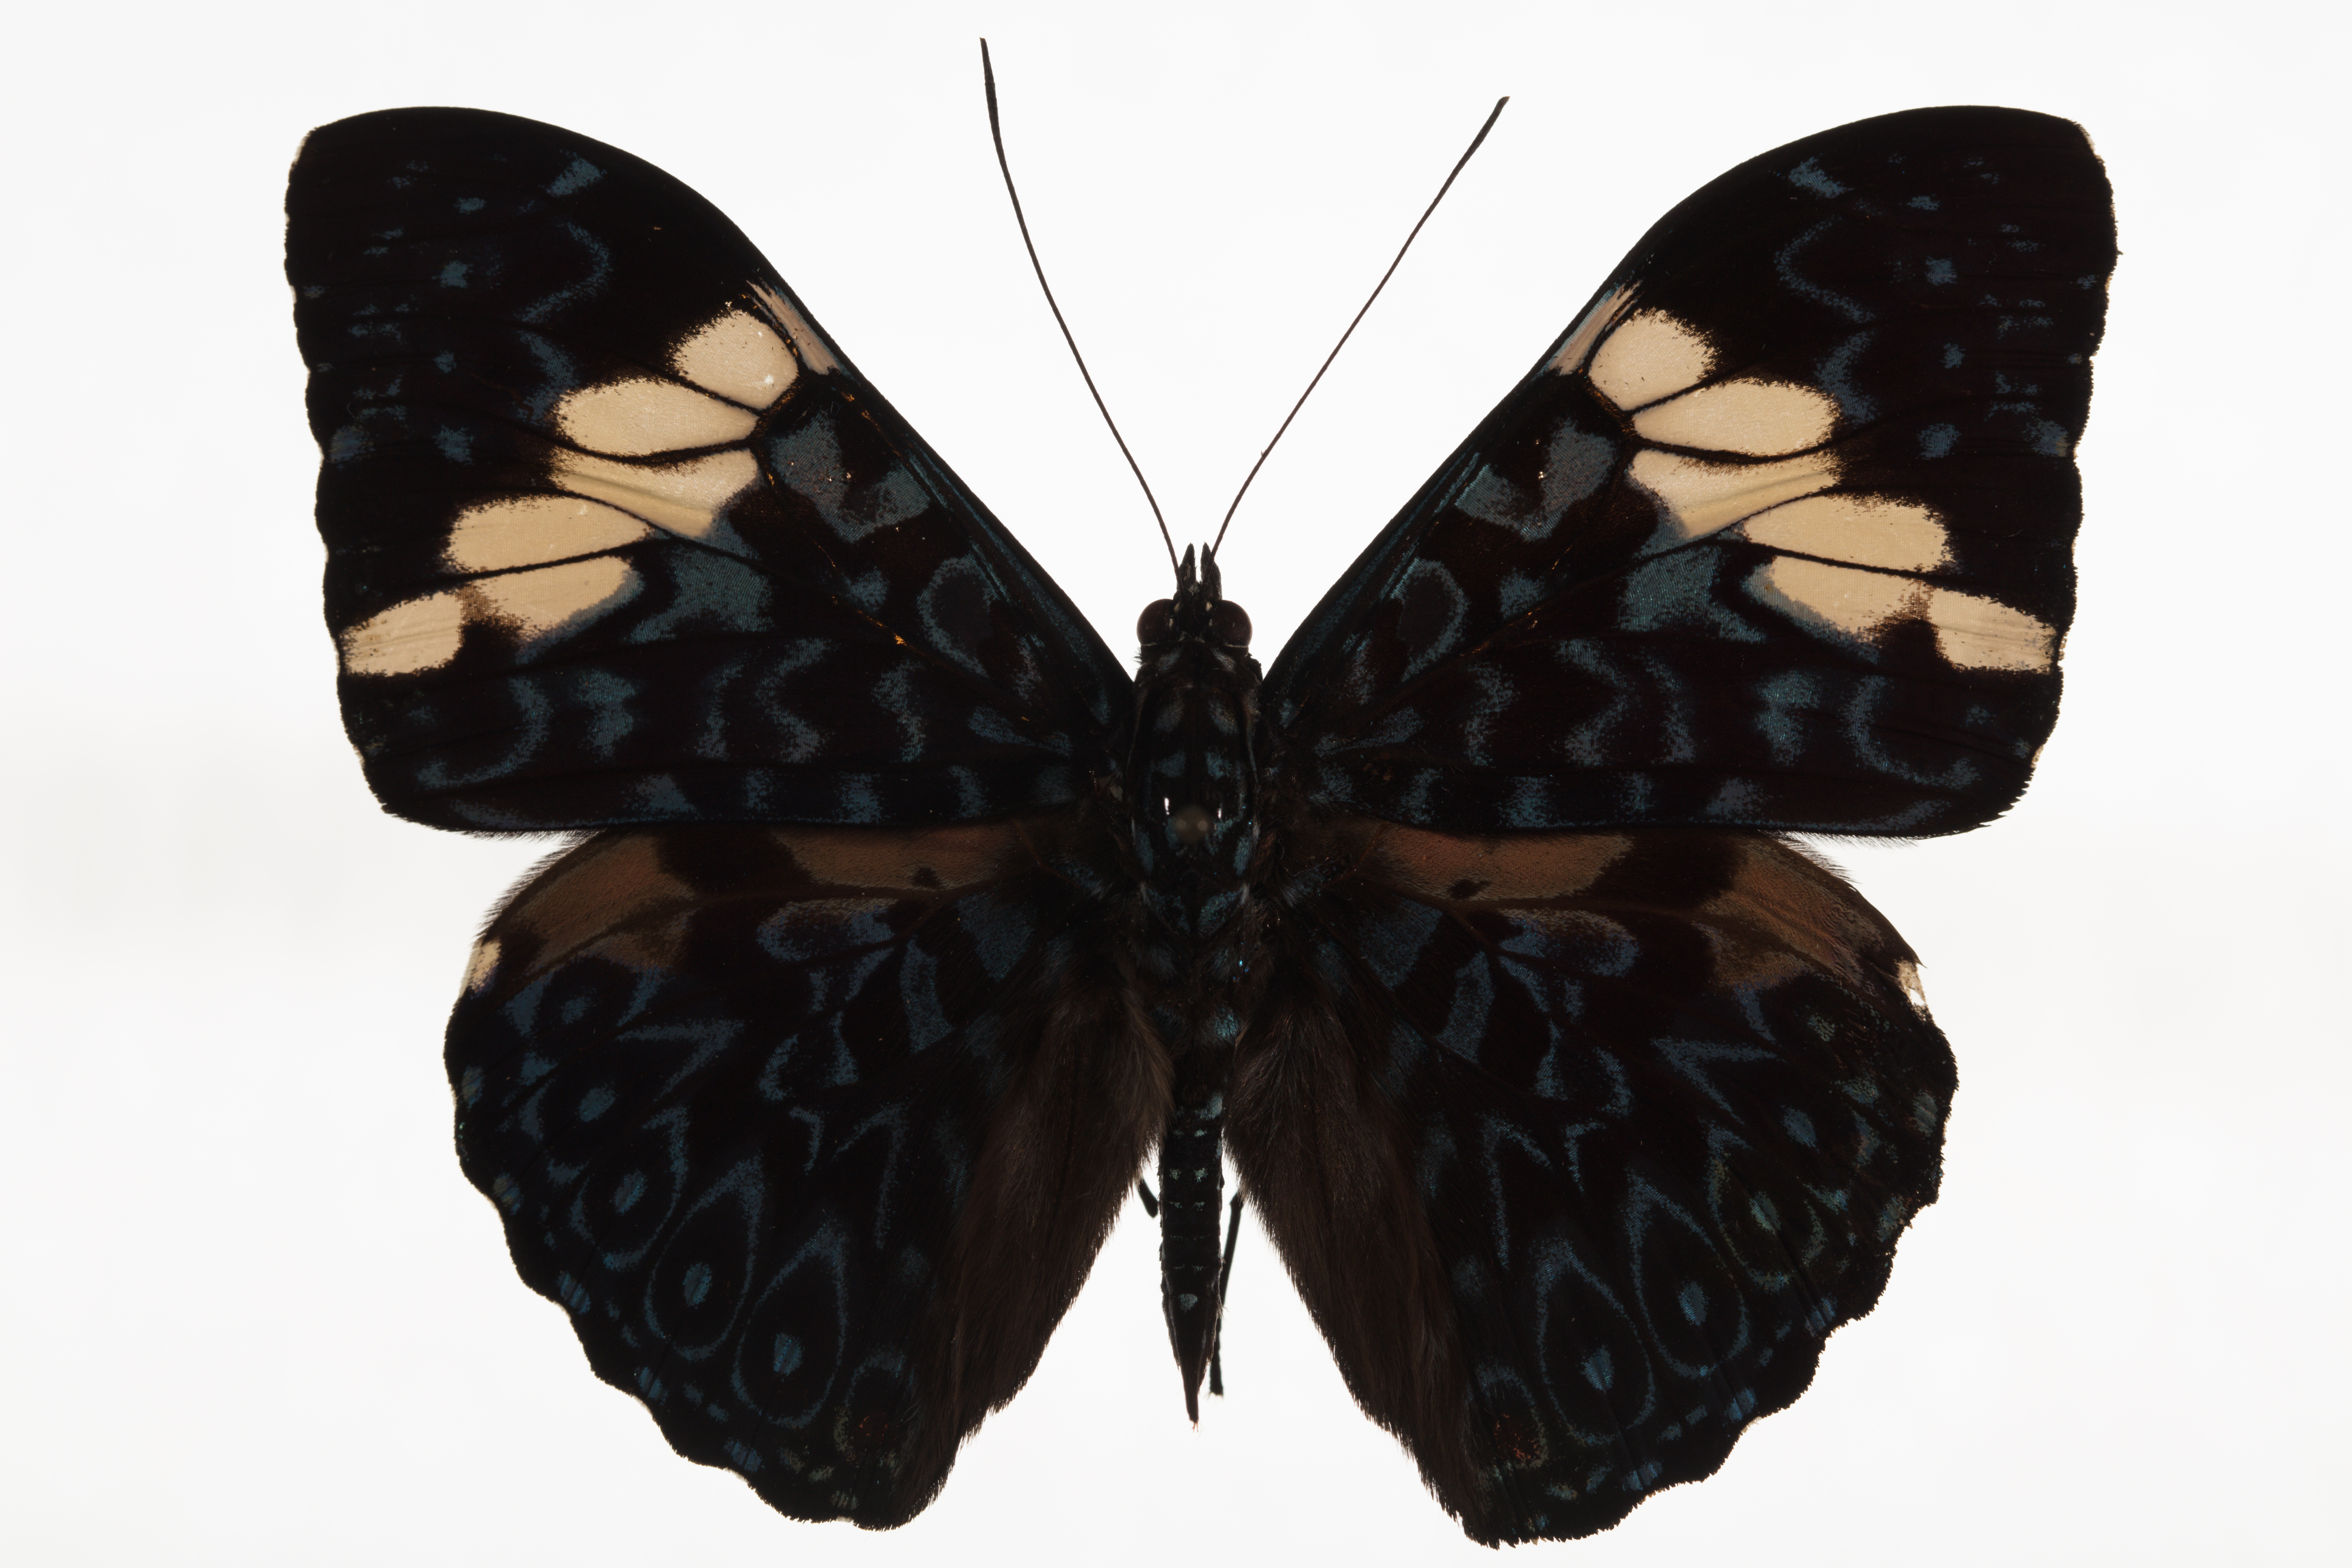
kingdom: Animalia
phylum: Arthropoda
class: Insecta
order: Lepidoptera
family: Nymphalidae
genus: Hamadryas
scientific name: Hamadryas arinome
